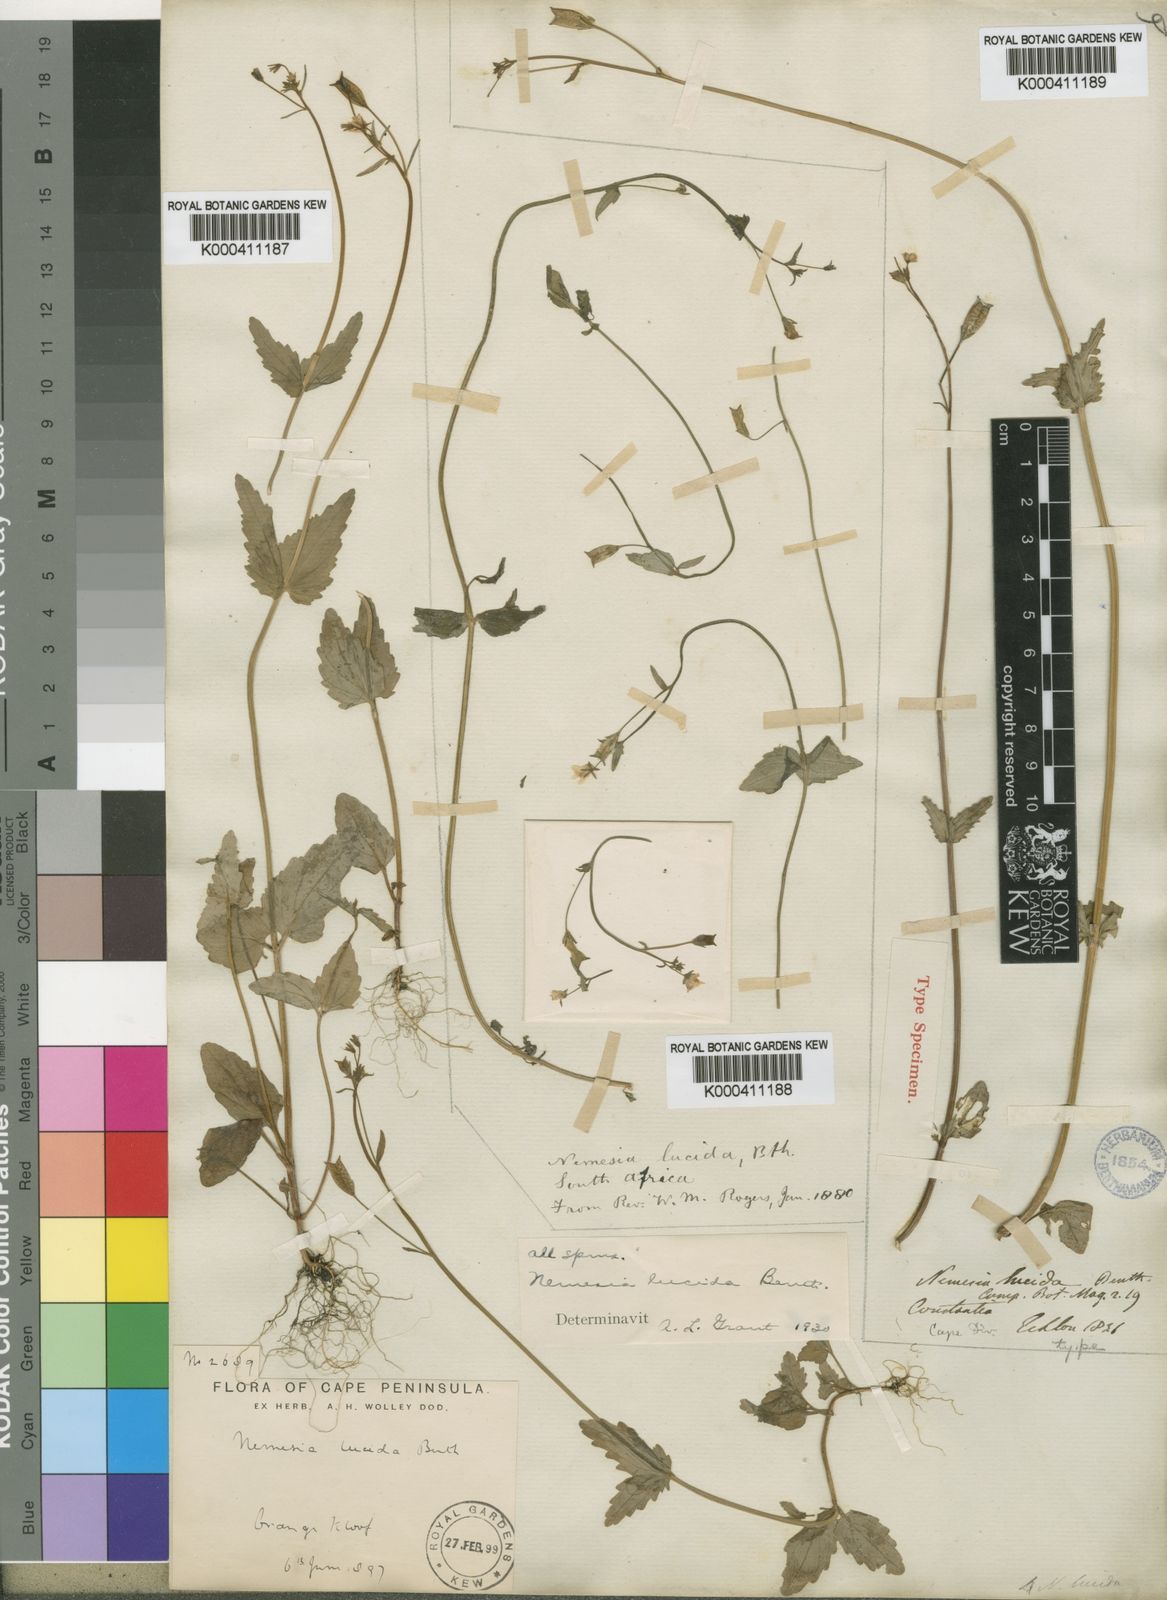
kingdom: Plantae
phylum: Tracheophyta
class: Magnoliopsida
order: Lamiales
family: Scrophulariaceae
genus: Nemesia
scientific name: Nemesia lucida
